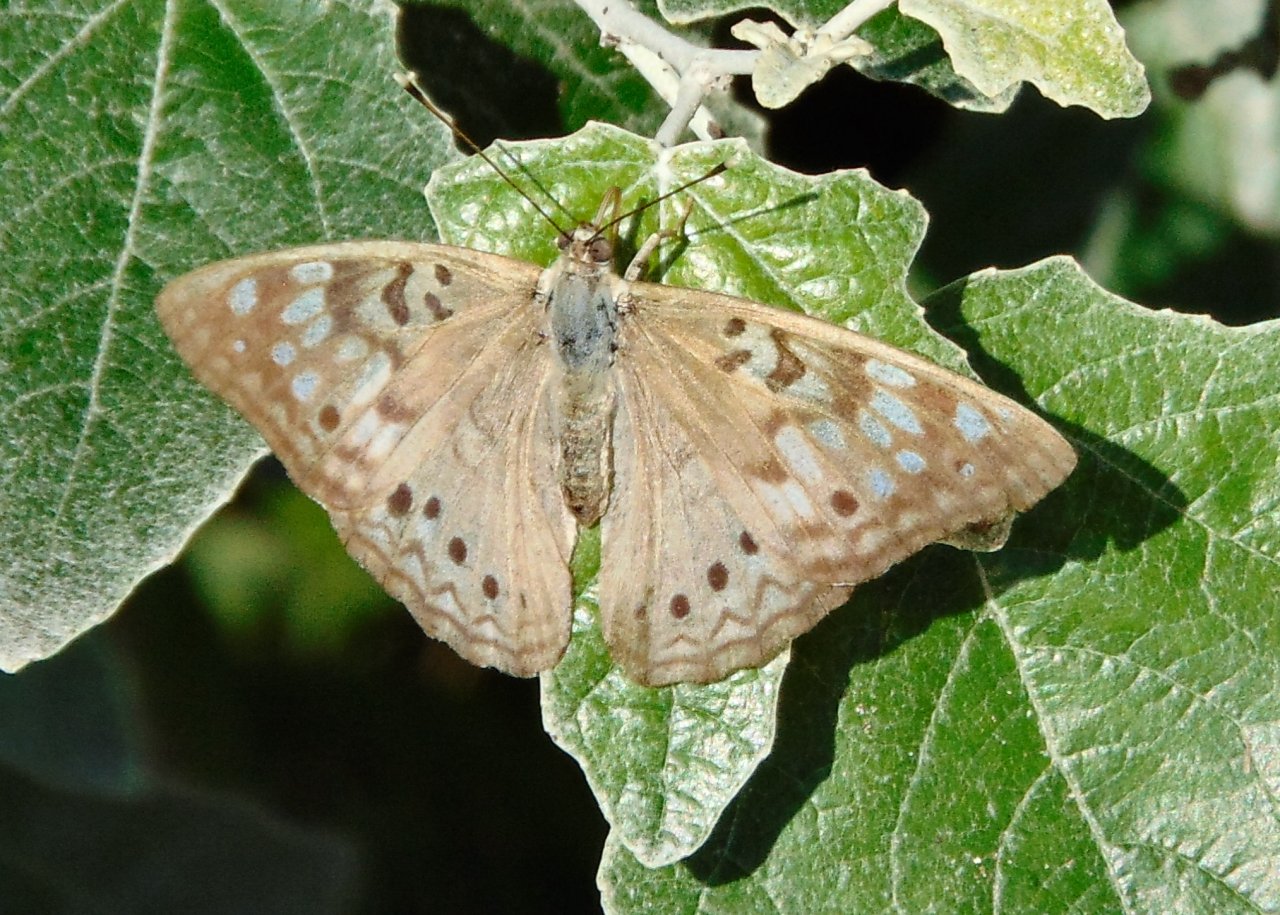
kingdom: Animalia
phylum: Arthropoda
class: Insecta
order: Lepidoptera
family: Nymphalidae
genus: Asterocampa
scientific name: Asterocampa celtis
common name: Hackberry Emperor
